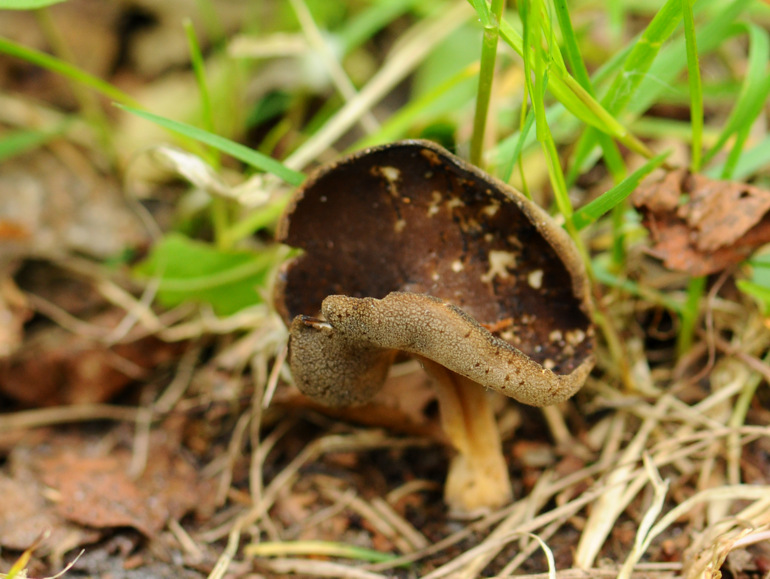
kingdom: Fungi
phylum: Ascomycota
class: Pezizomycetes
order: Pezizales
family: Helvellaceae
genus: Helvella
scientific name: Helvella solitaria
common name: Quélets foldhat
